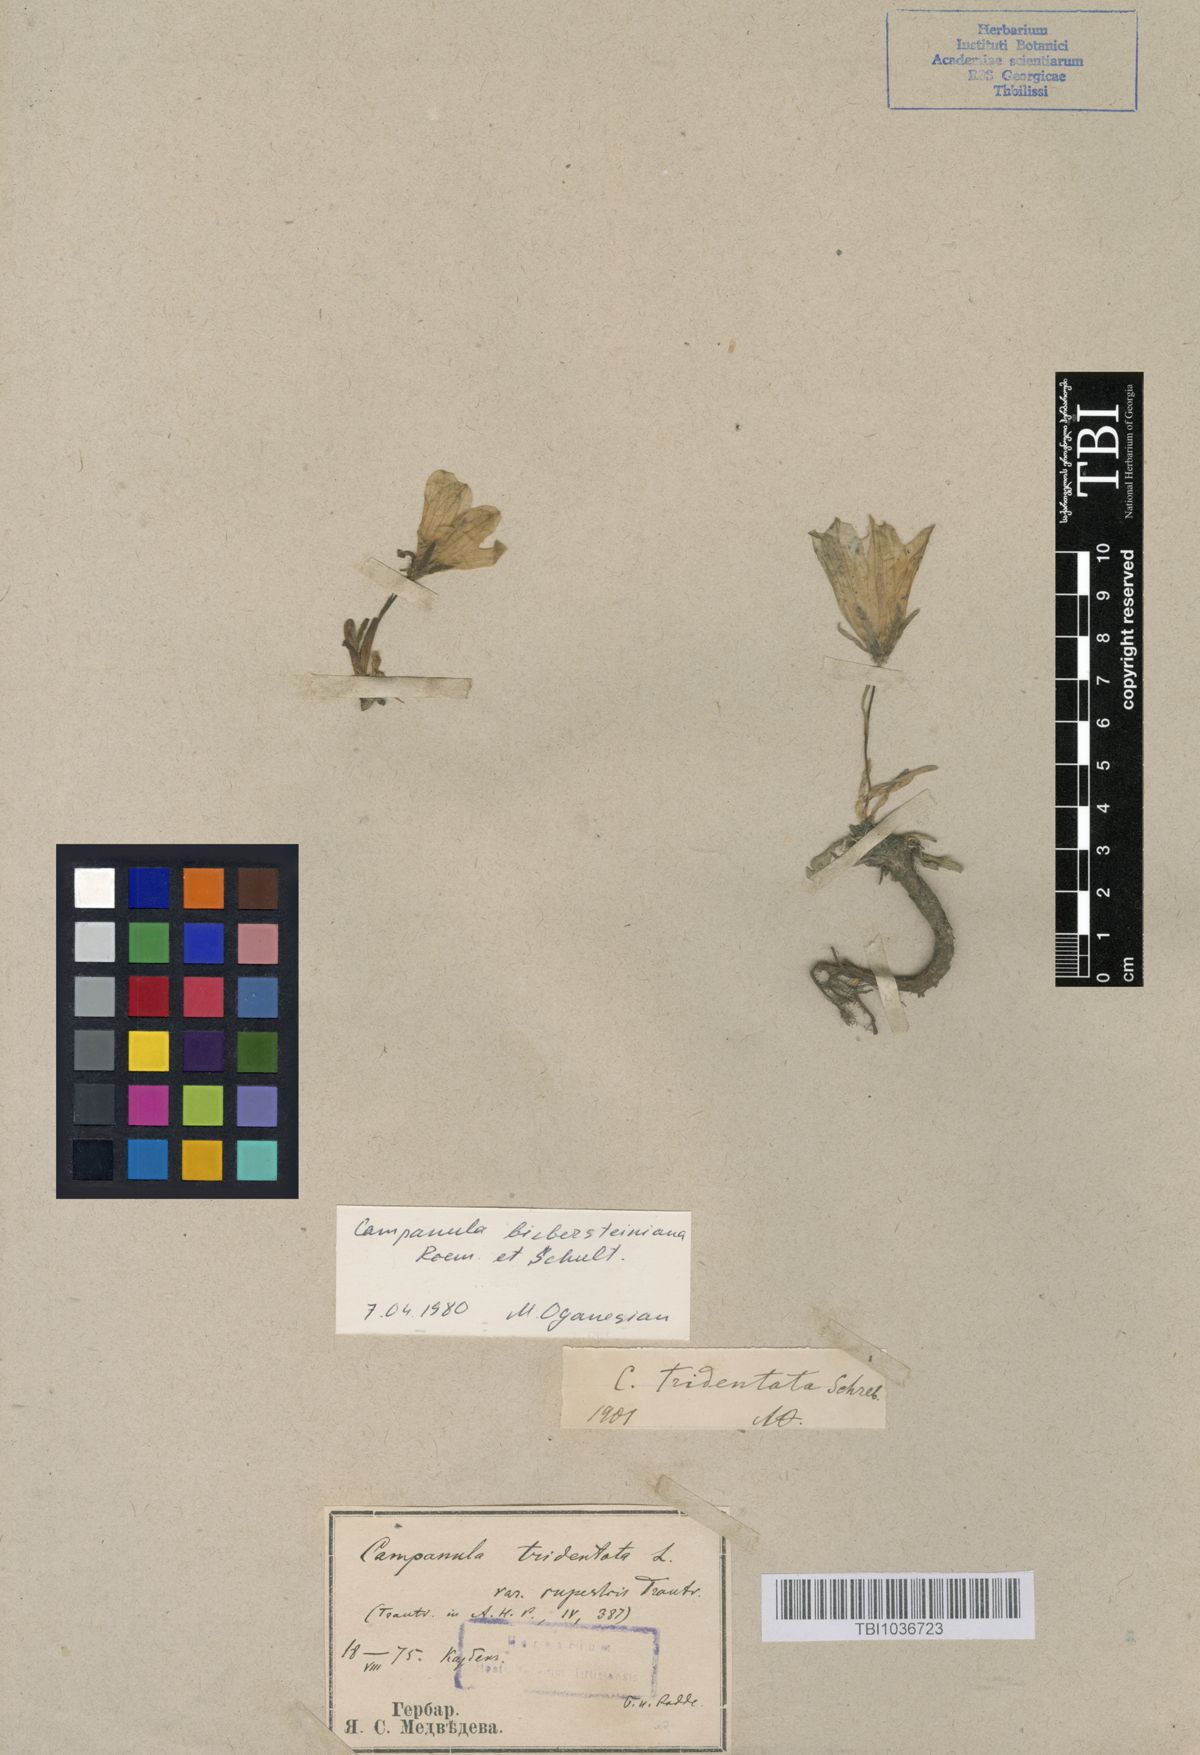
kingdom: Plantae
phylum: Tracheophyta
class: Magnoliopsida
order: Asterales
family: Campanulaceae
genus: Campanula
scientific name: Campanula tridentata
